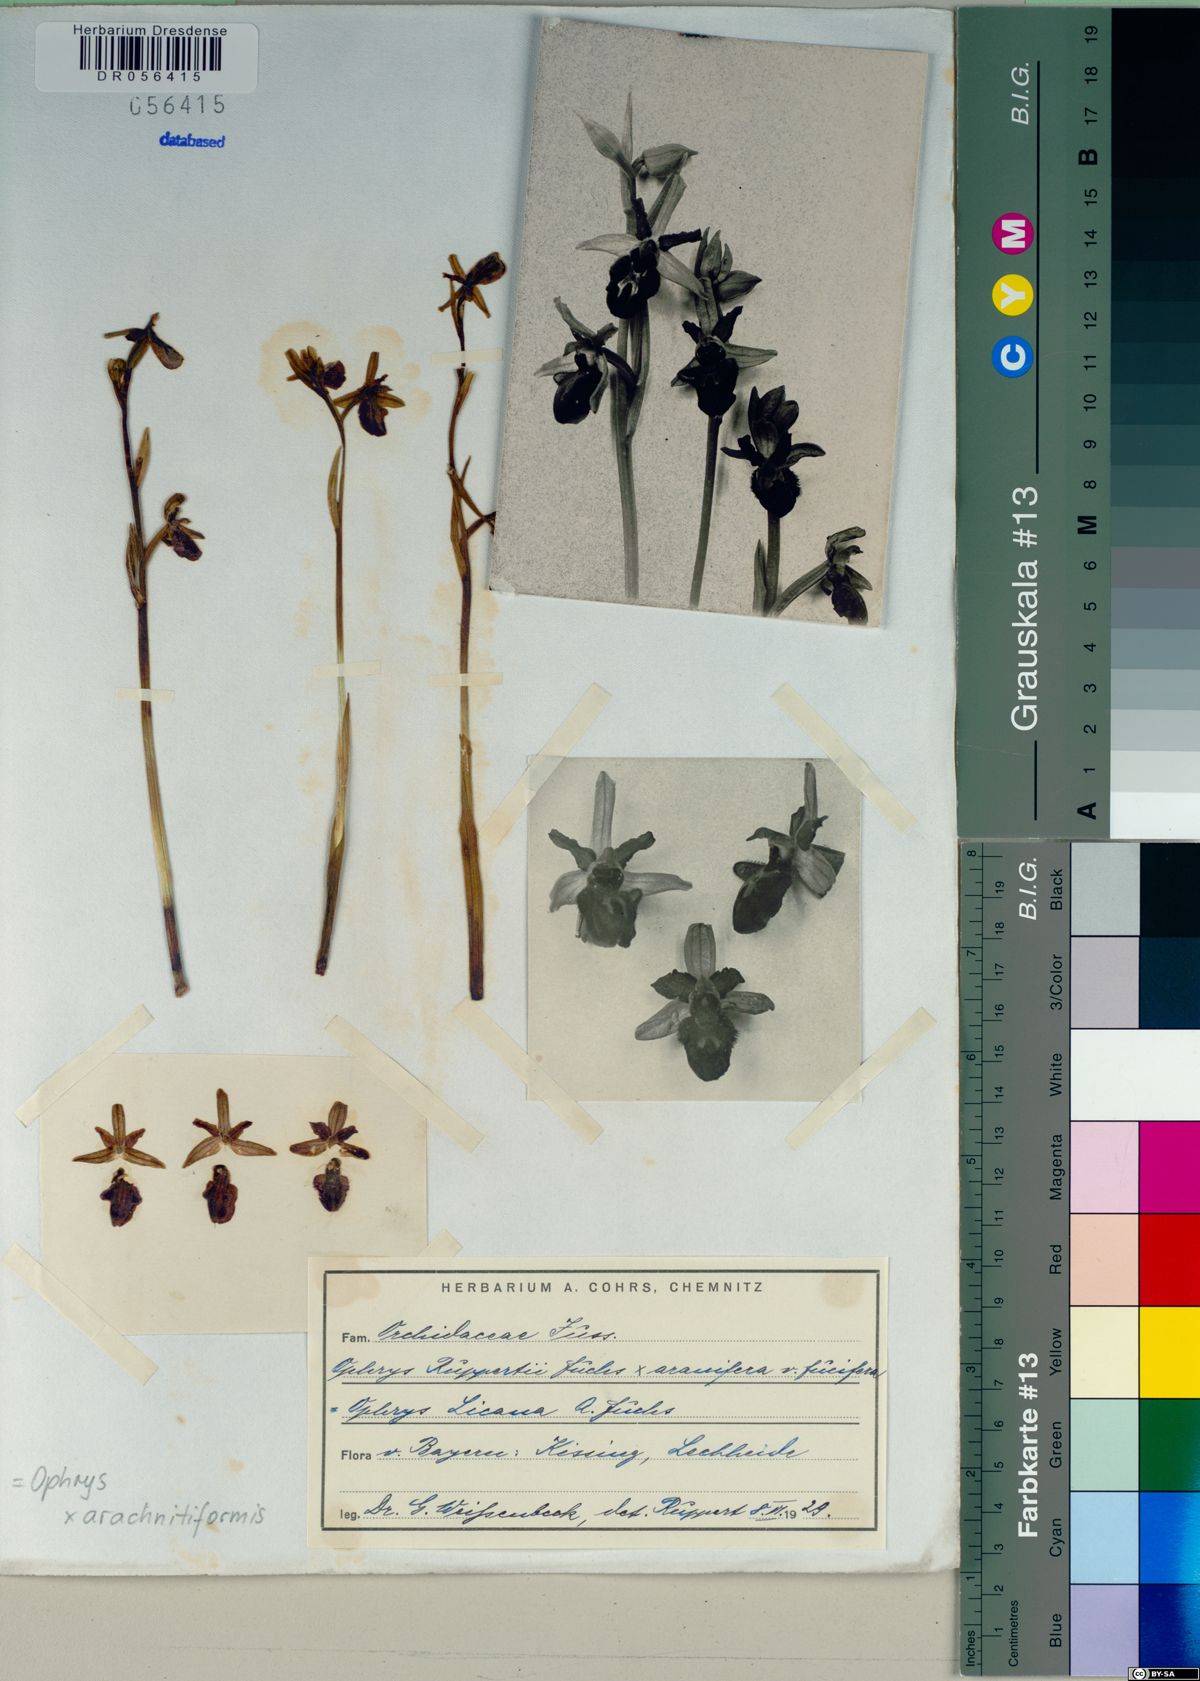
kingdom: Plantae
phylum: Tracheophyta
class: Liliopsida
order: Asparagales
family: Orchidaceae
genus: Ophrys
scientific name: Ophrys sphegodes
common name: Early spider-orchid
